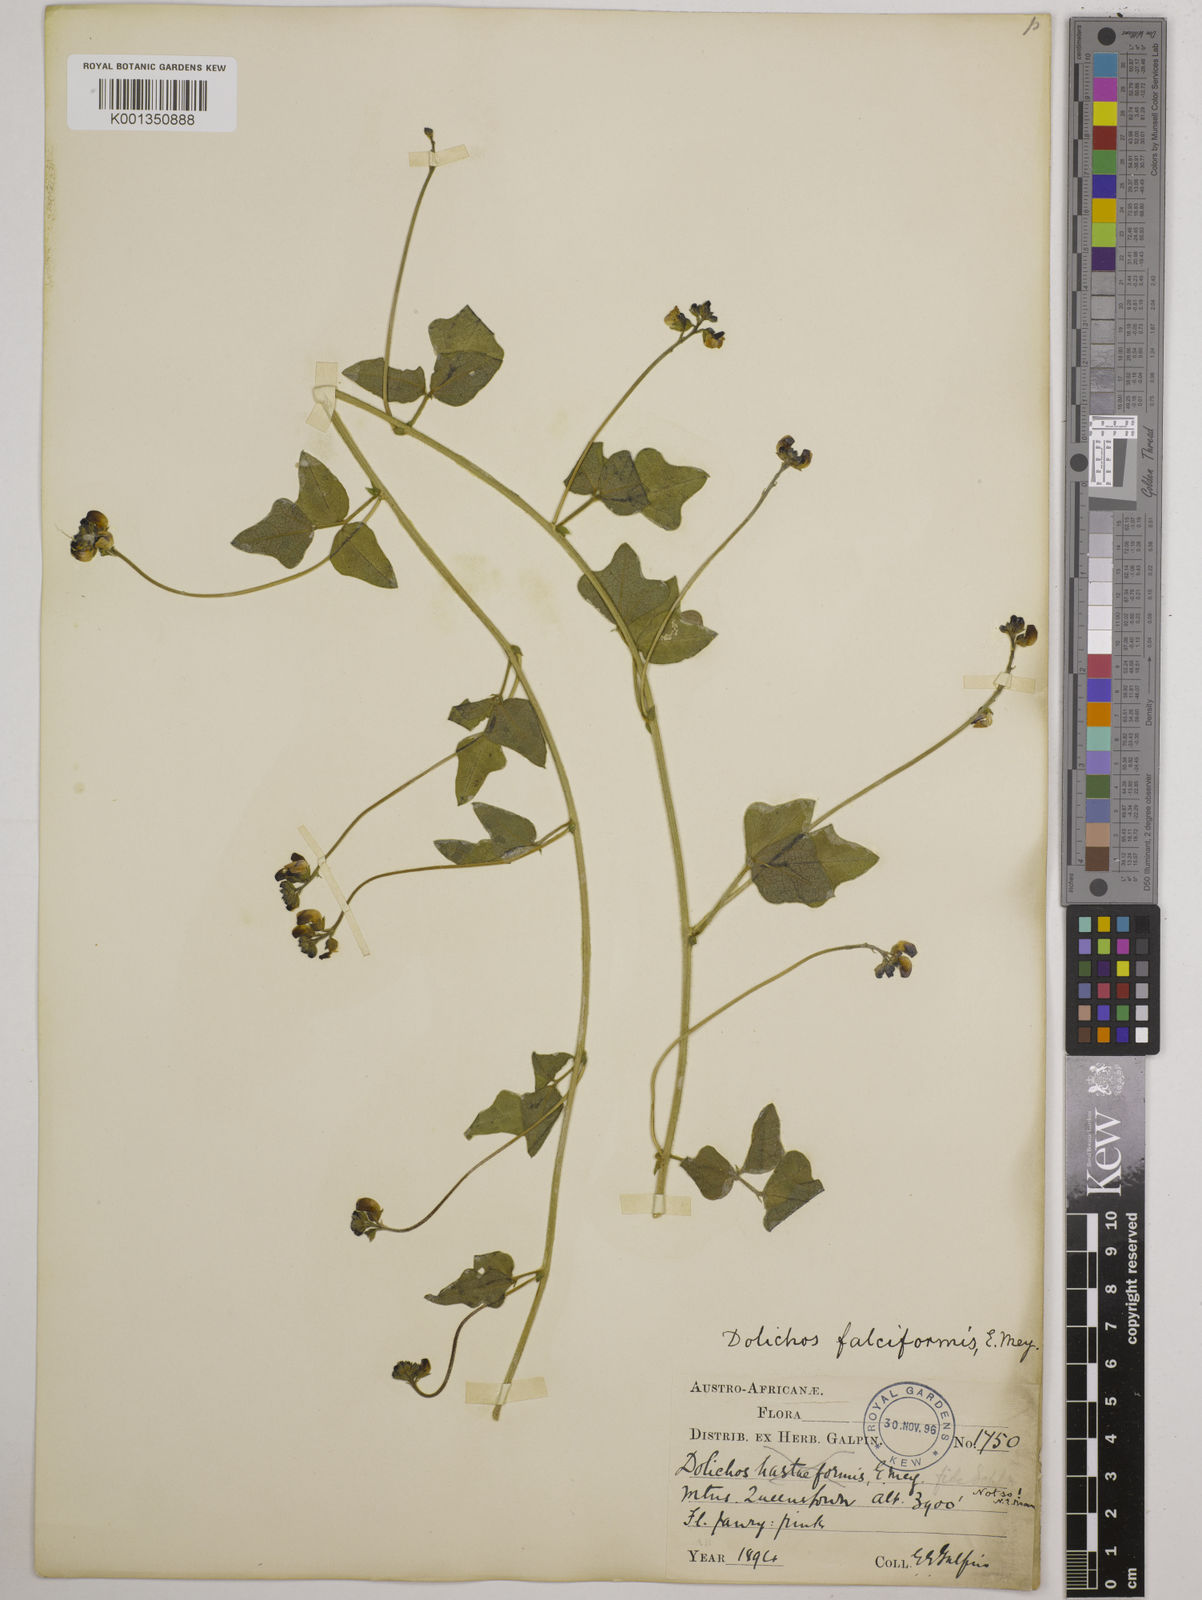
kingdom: Plantae
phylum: Tracheophyta
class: Magnoliopsida
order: Fabales
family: Fabaceae
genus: Dolichos
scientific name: Dolichos falciformis
